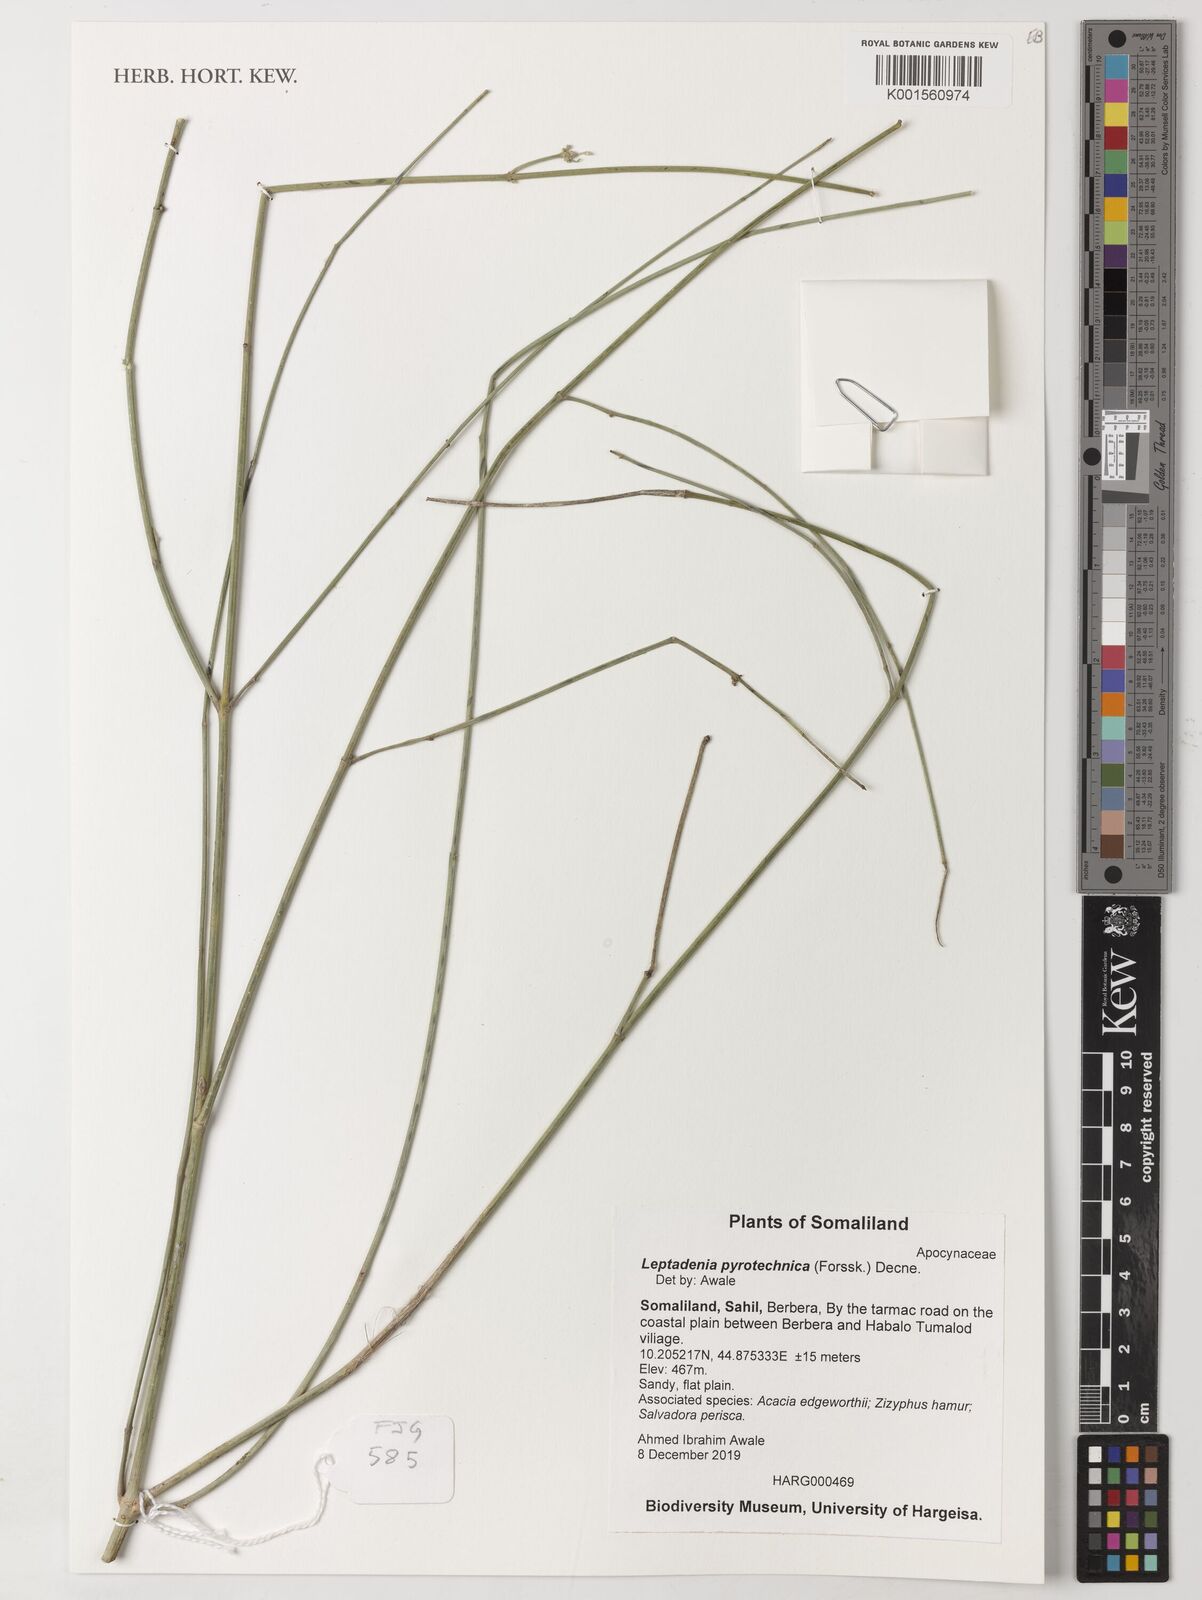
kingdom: Plantae
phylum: Tracheophyta
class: Magnoliopsida
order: Gentianales
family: Apocynaceae
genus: Leptadenia
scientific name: Leptadenia pyrotechnica
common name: Broom brush
